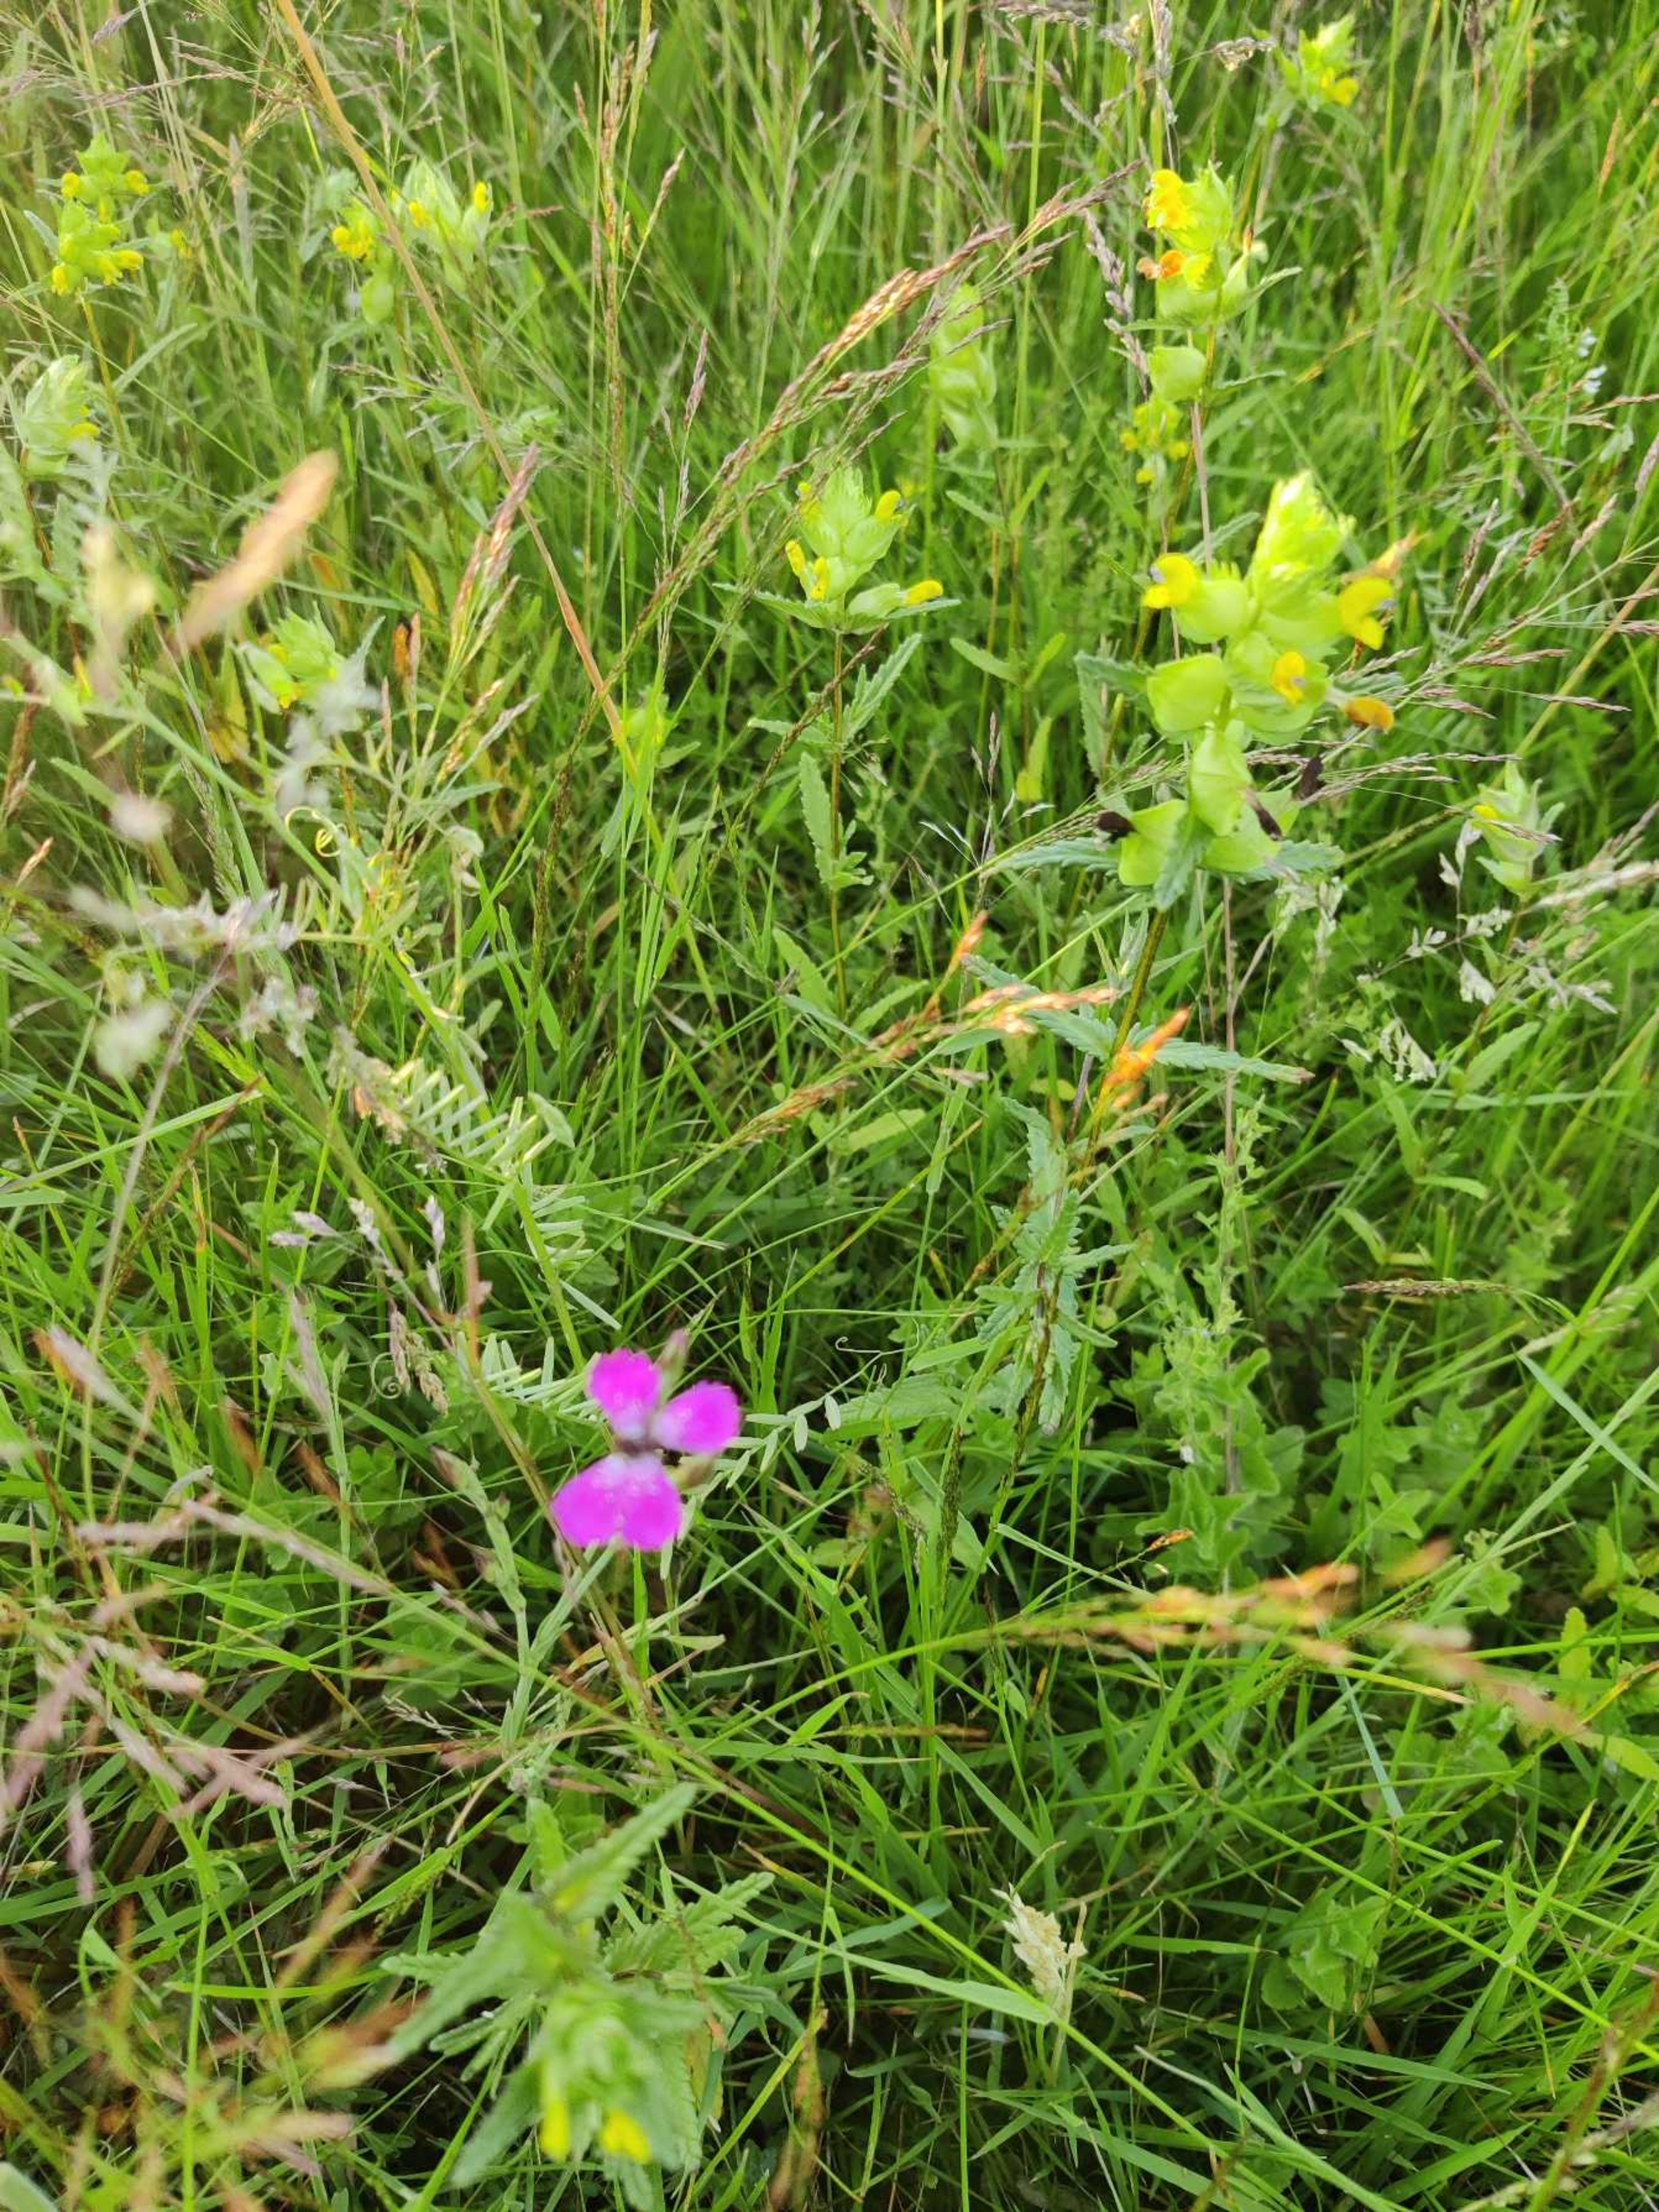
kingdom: Plantae
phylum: Tracheophyta
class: Magnoliopsida
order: Caryophyllales
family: Caryophyllaceae
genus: Dianthus
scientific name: Dianthus deltoides
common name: Bakke-nellike
